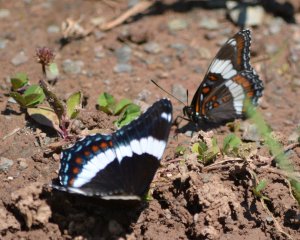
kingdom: Animalia
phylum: Arthropoda
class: Insecta
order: Lepidoptera
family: Nymphalidae
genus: Limenitis
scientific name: Limenitis arthemis
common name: Red-spotted Admiral
